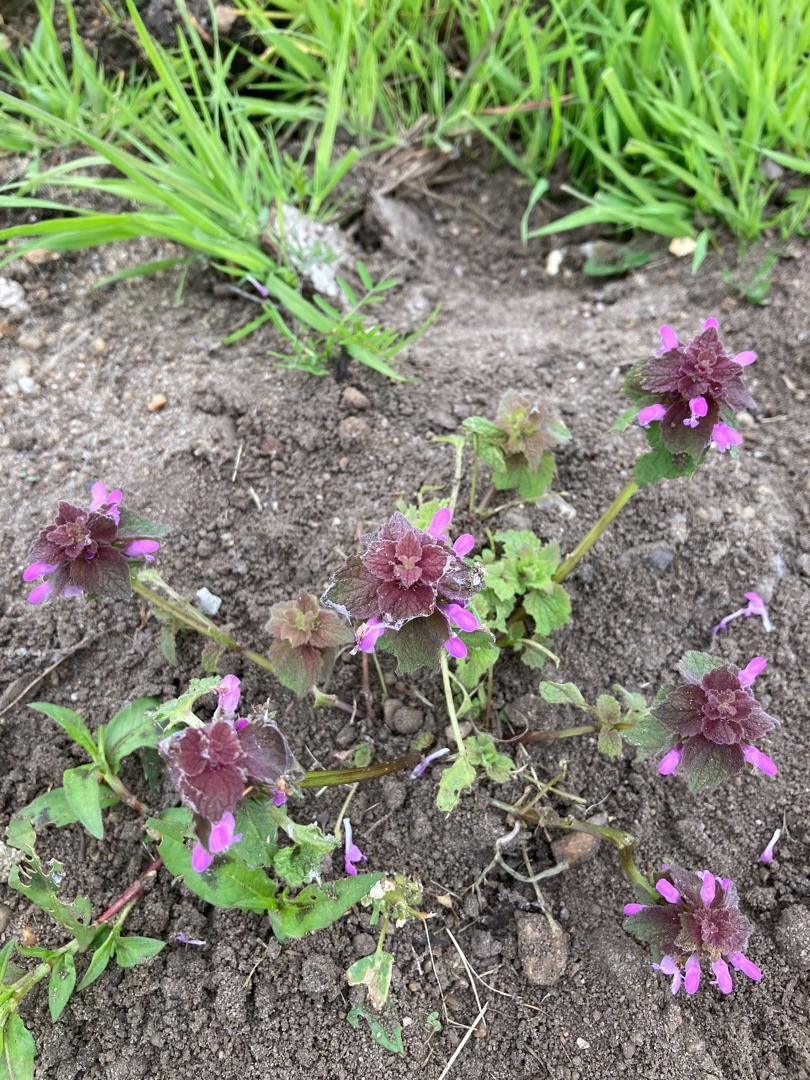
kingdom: Plantae
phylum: Tracheophyta
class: Magnoliopsida
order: Lamiales
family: Lamiaceae
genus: Lamium
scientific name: Lamium purpureum
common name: Rød tvetand
